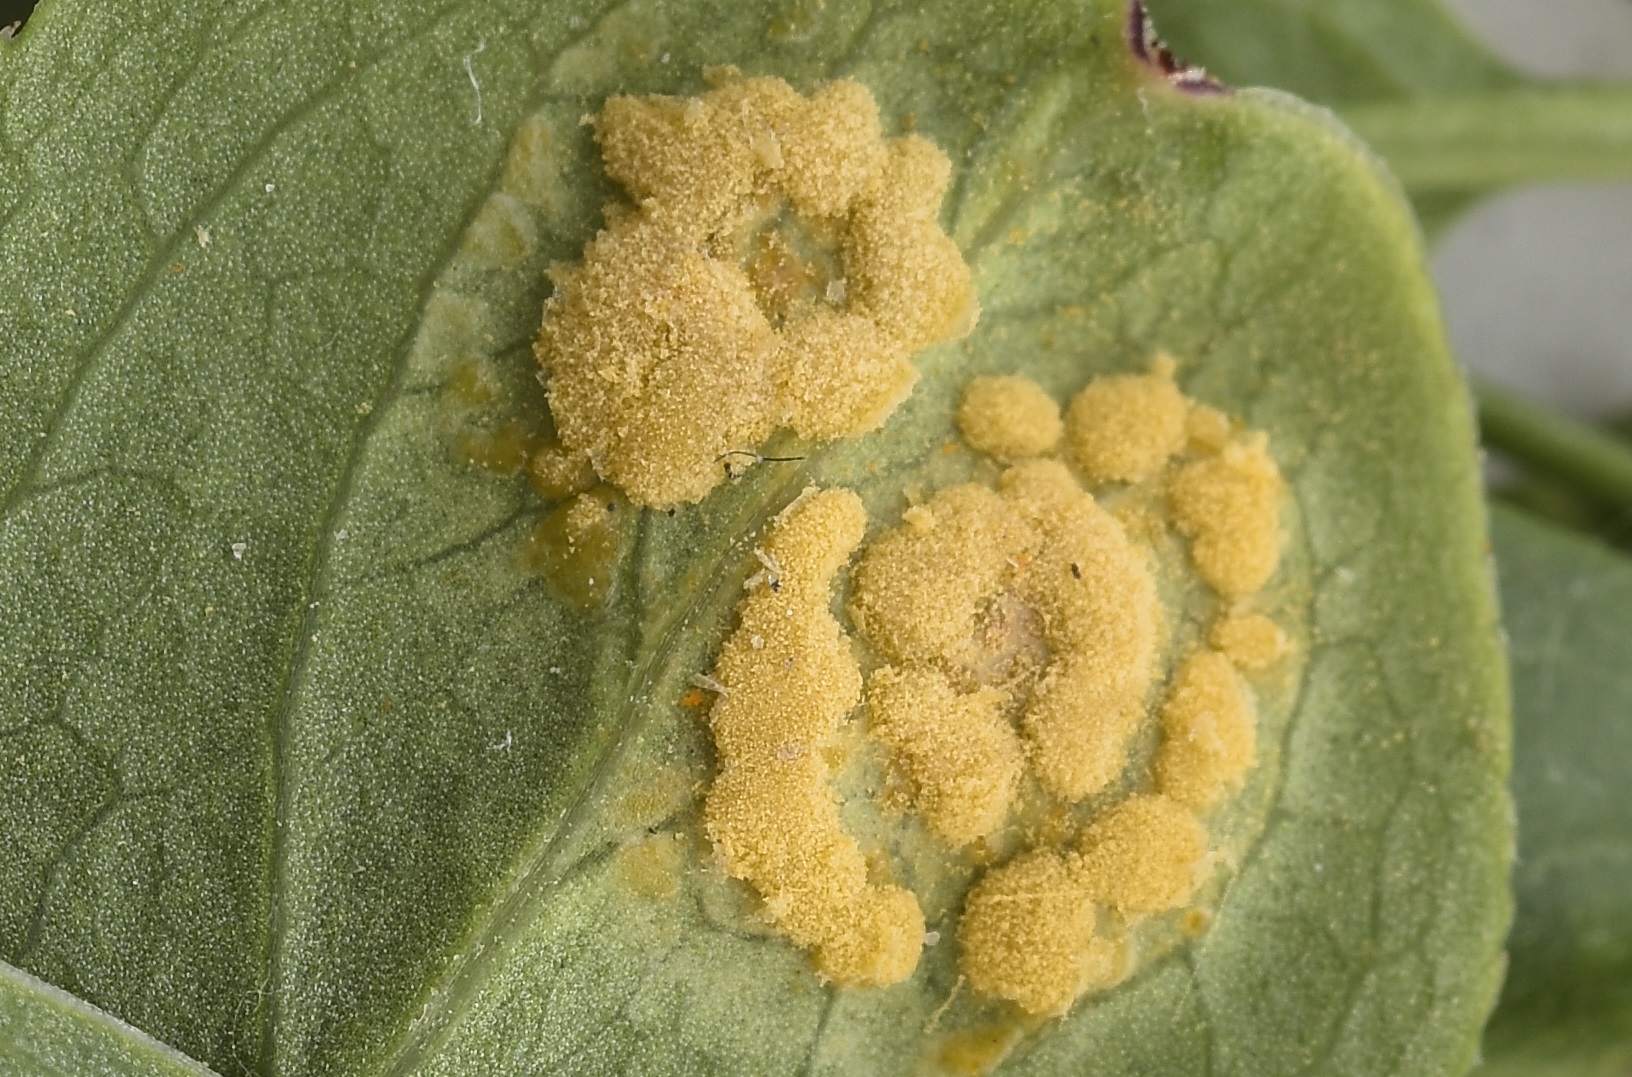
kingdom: Fungi
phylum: Basidiomycota
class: Pucciniomycetes
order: Pucciniales
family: Melampsoraceae
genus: Melampsora
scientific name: Melampsora epitea
